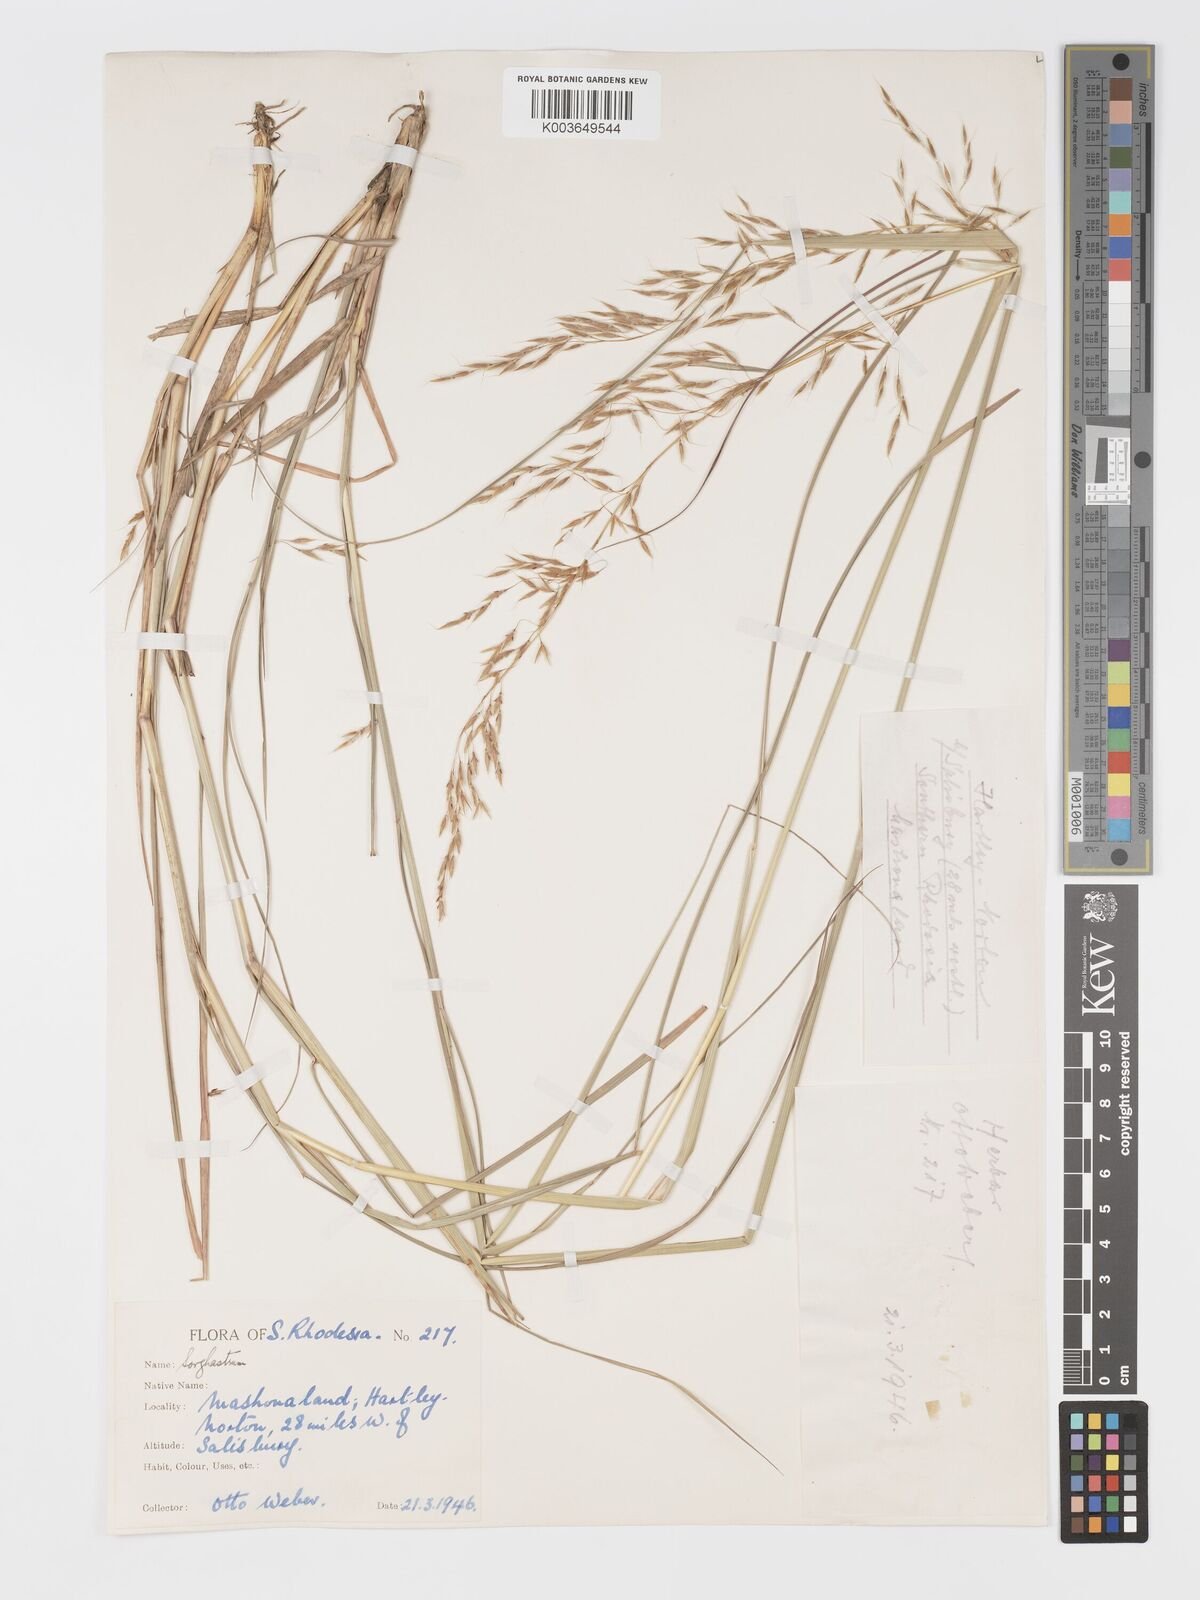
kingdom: Plantae
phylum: Tracheophyta
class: Liliopsida
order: Poales
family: Poaceae
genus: Sorghastrum
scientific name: Sorghastrum nudipes
